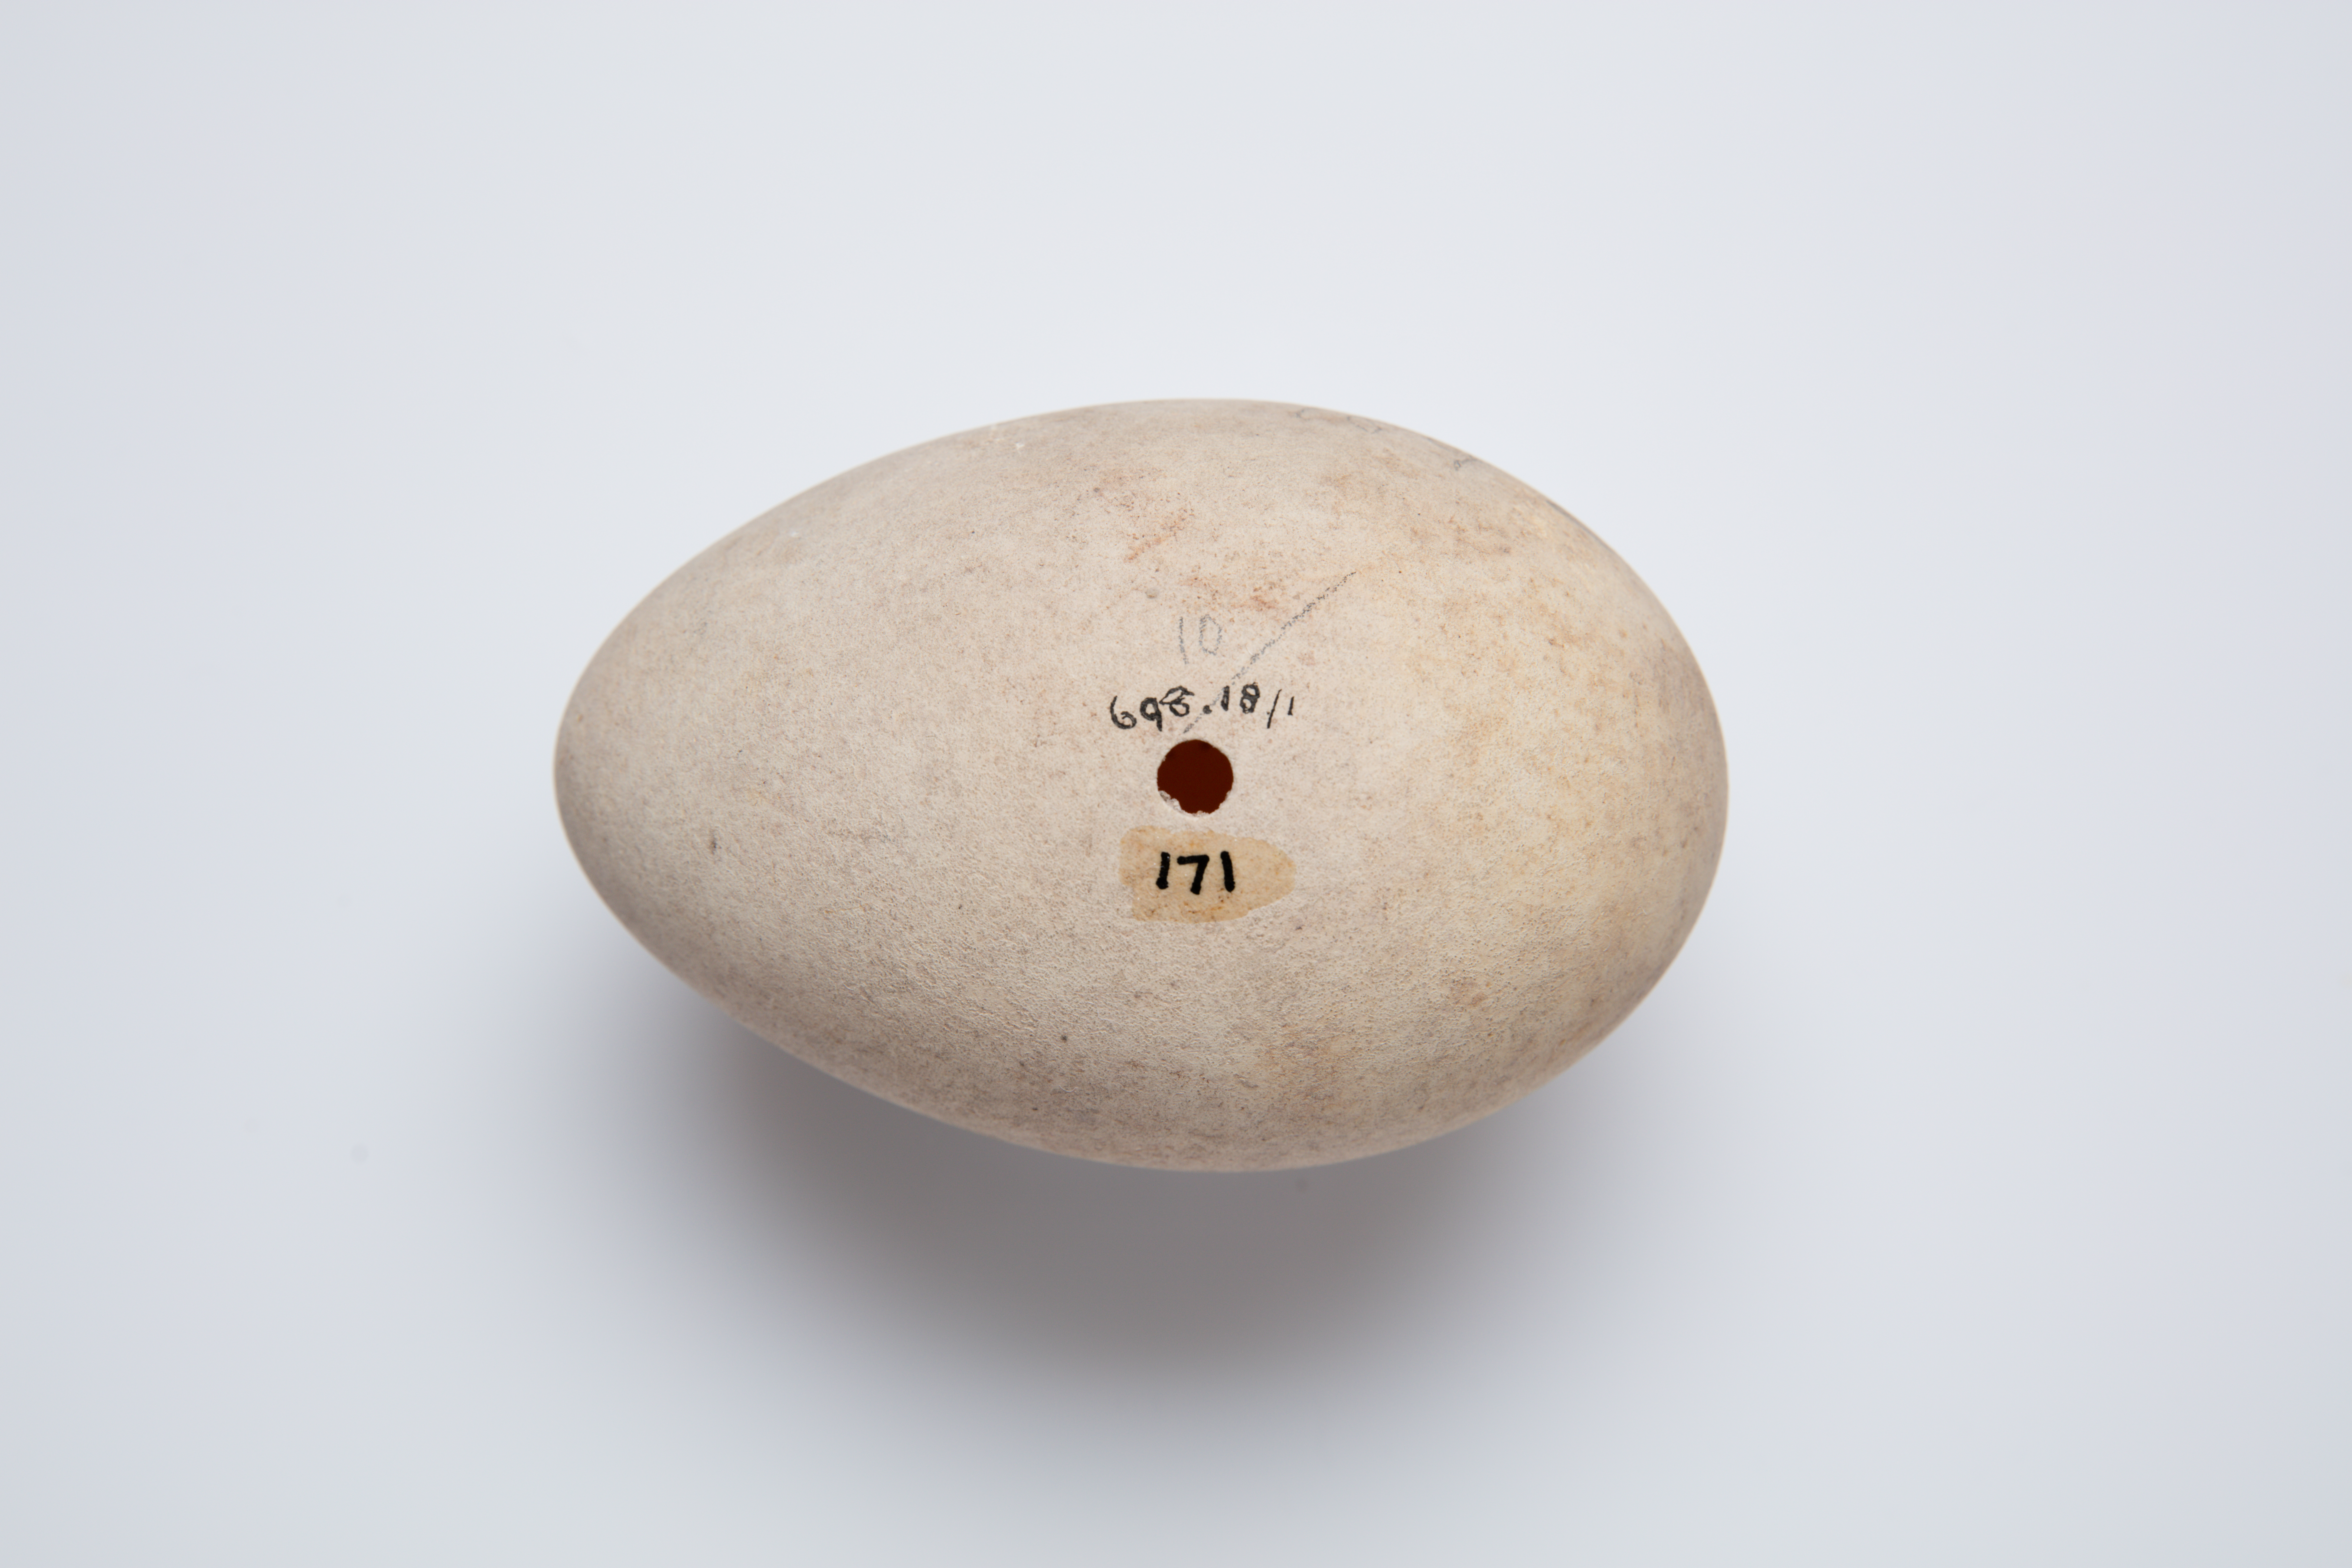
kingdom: Animalia
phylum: Chordata
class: Aves
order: Procellariiformes
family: Procellariidae
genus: Macronectes
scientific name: Macronectes halli
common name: Northern giant petrel
